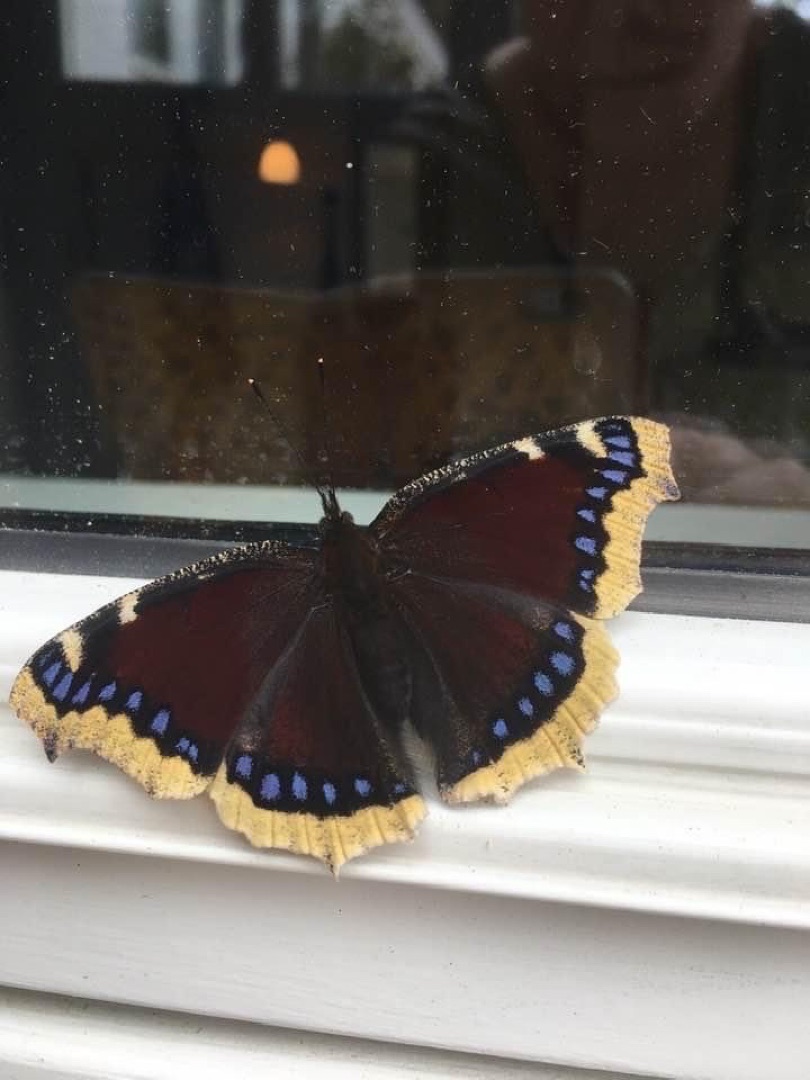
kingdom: Animalia
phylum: Arthropoda
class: Insecta
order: Lepidoptera
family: Nymphalidae
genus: Nymphalis
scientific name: Nymphalis antiopa
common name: Sørgekåbe
